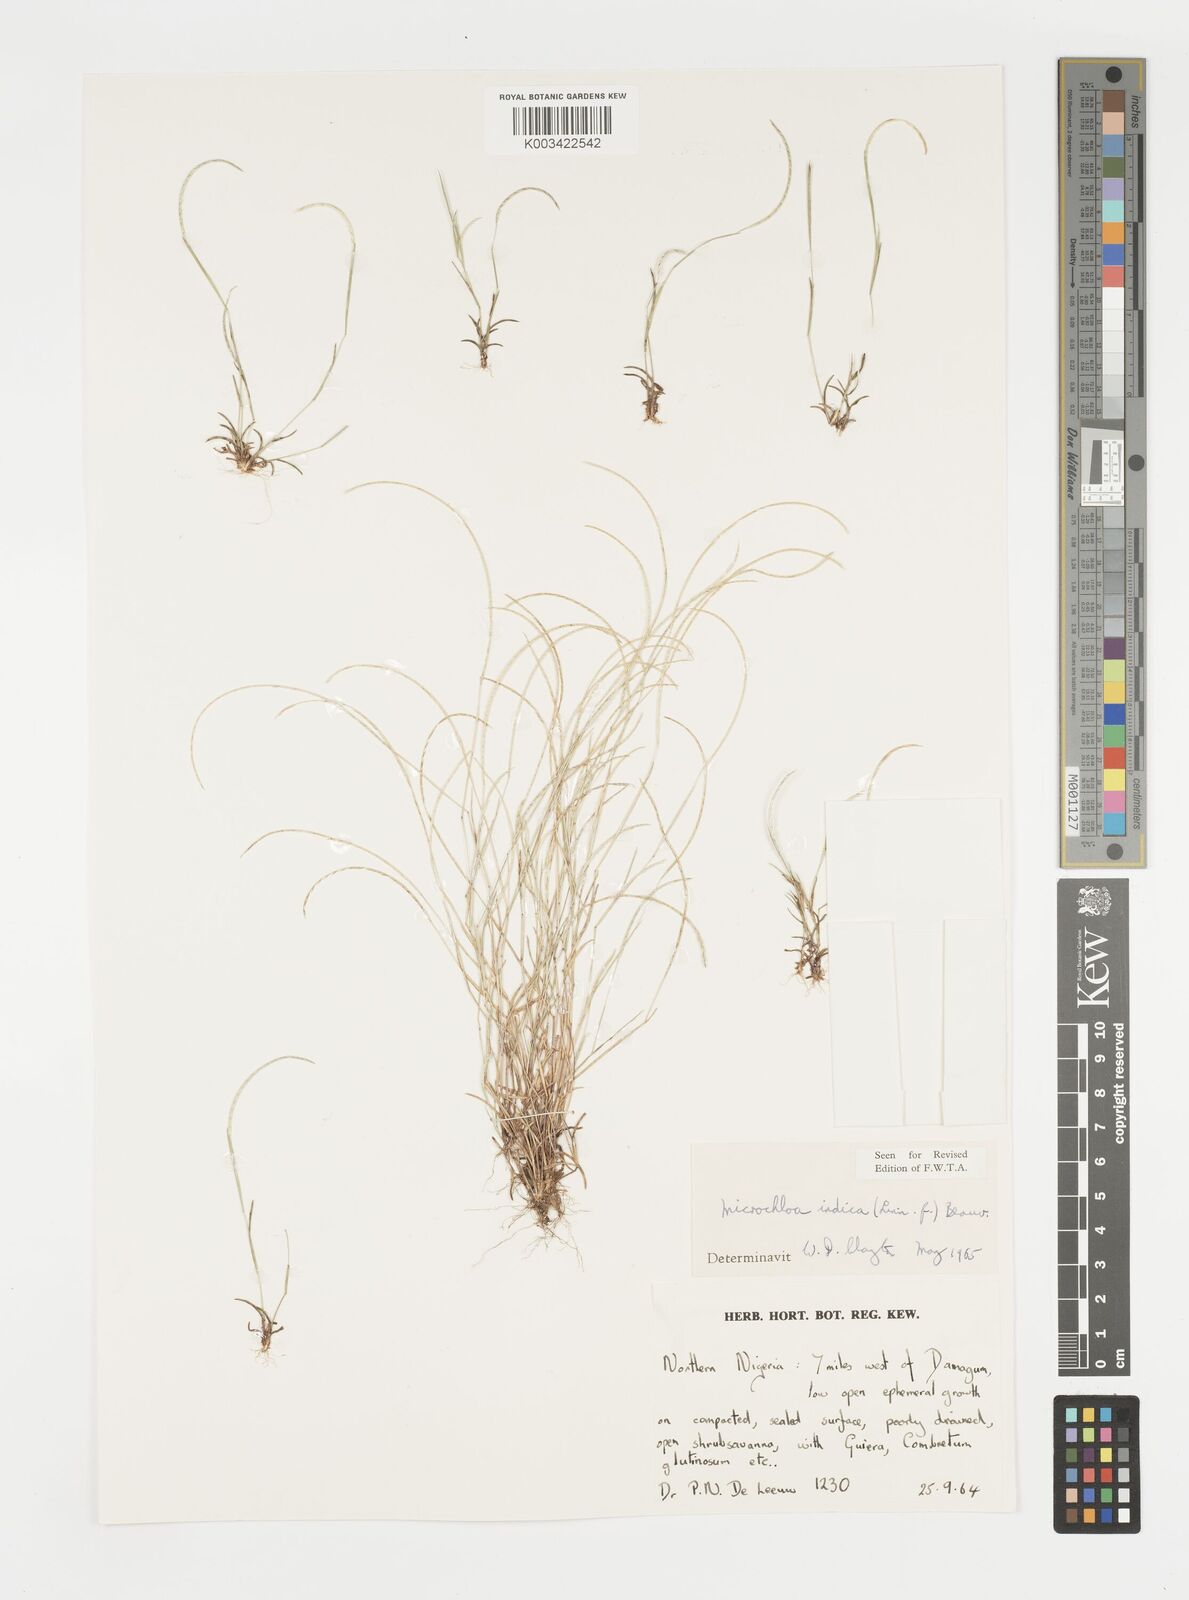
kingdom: Plantae
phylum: Tracheophyta
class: Liliopsida
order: Poales
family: Poaceae
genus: Microchloa
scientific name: Microchloa indica
